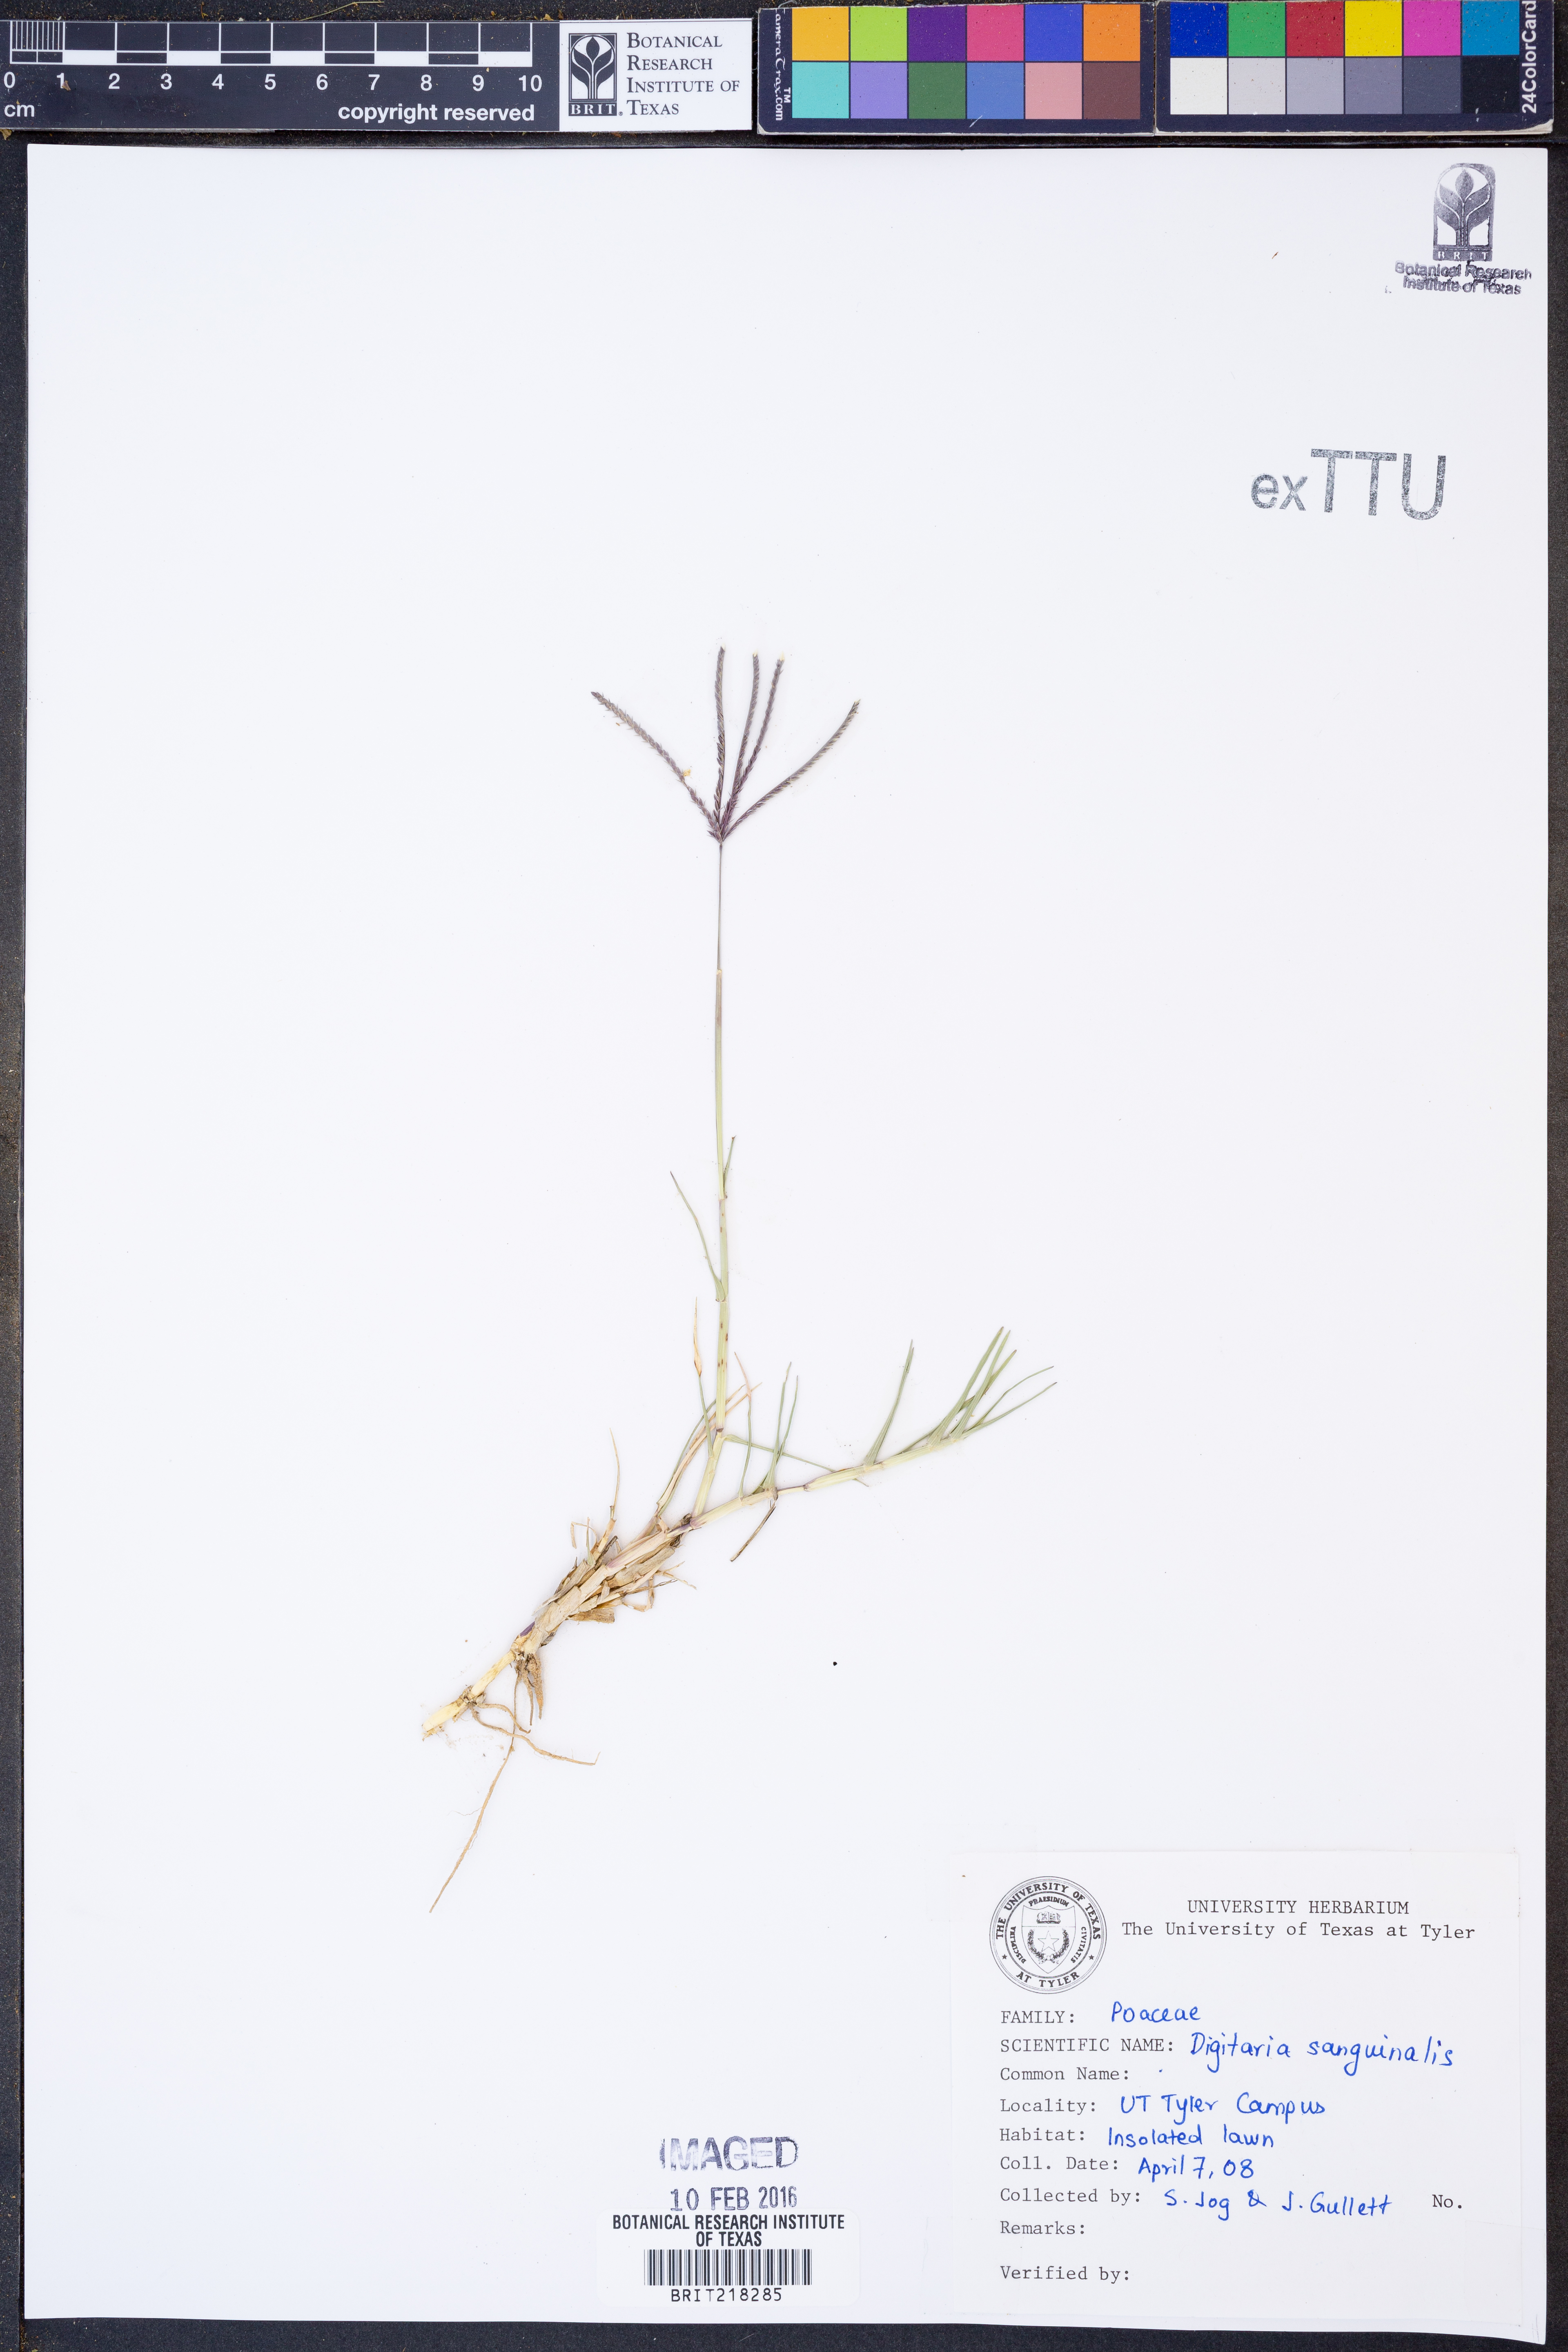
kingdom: Plantae
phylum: Tracheophyta
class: Liliopsida
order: Poales
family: Poaceae
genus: Digitaria
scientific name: Digitaria sanguinalis
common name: Hairy crabgrass
